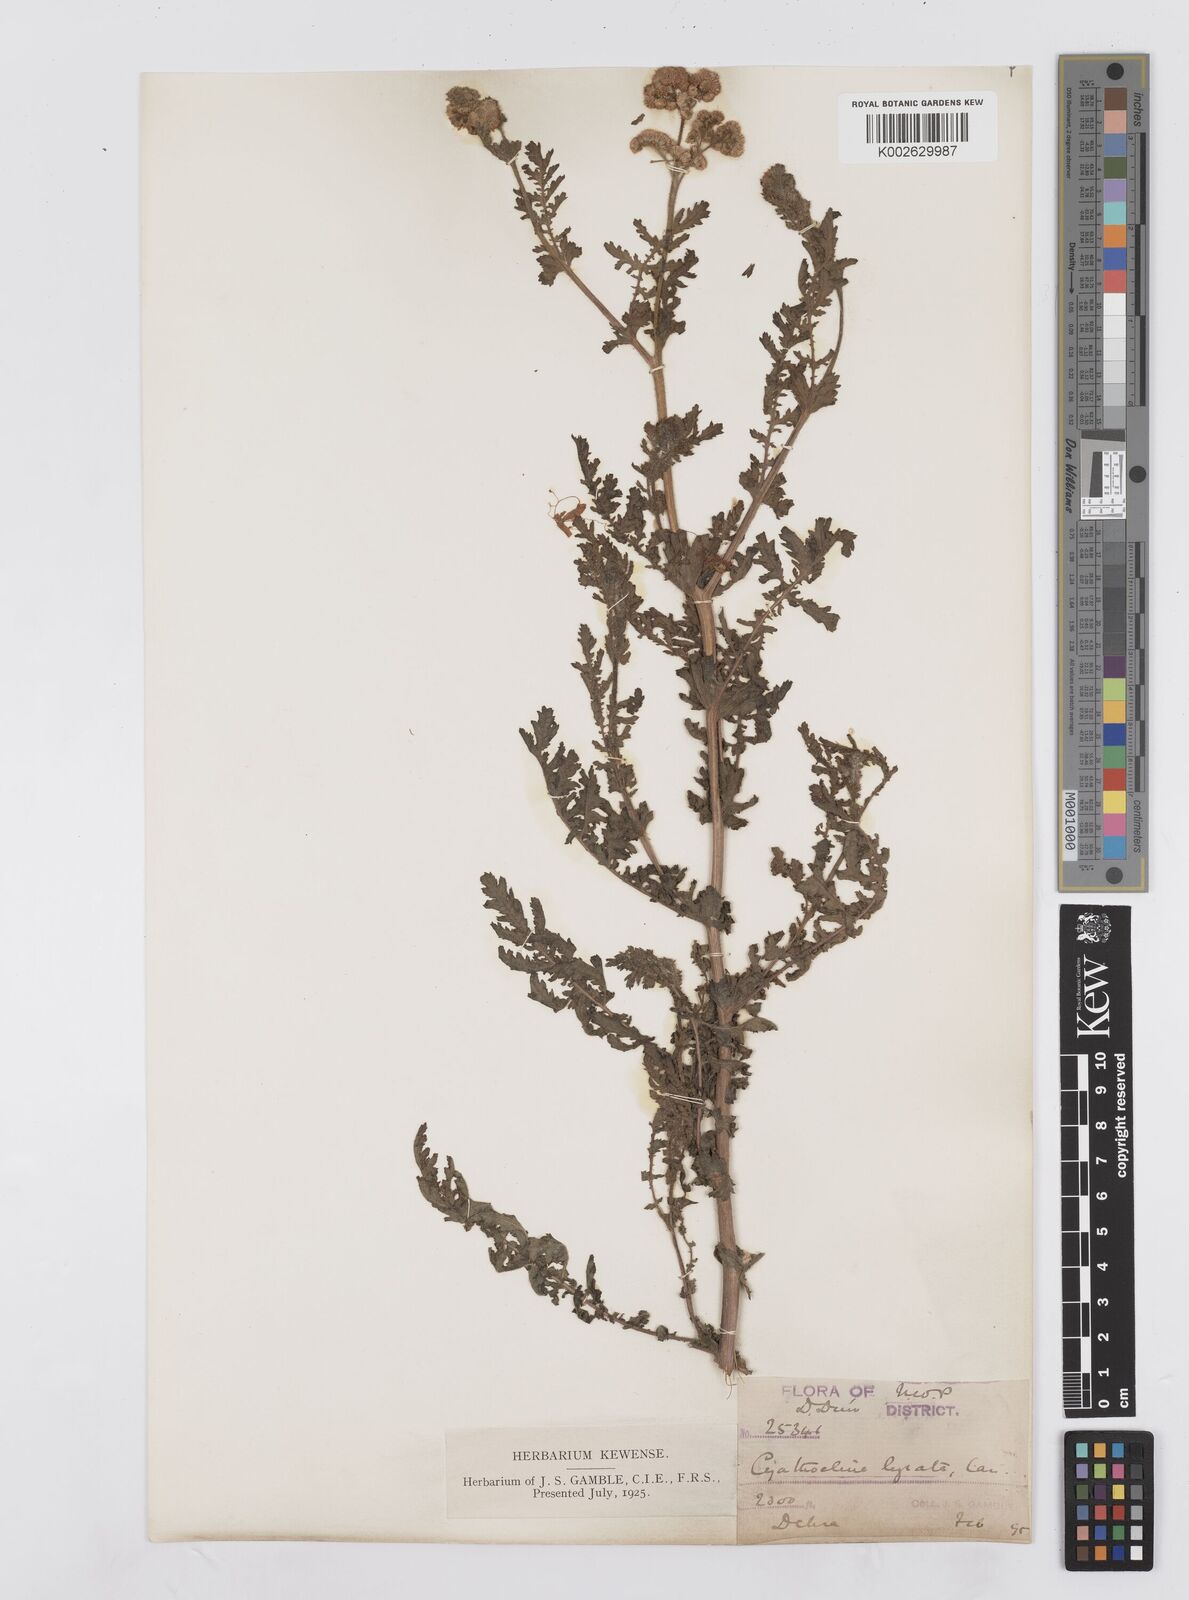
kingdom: Plantae
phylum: Tracheophyta
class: Magnoliopsida
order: Asterales
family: Asteraceae
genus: Cyathocline
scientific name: Cyathocline purpurea
